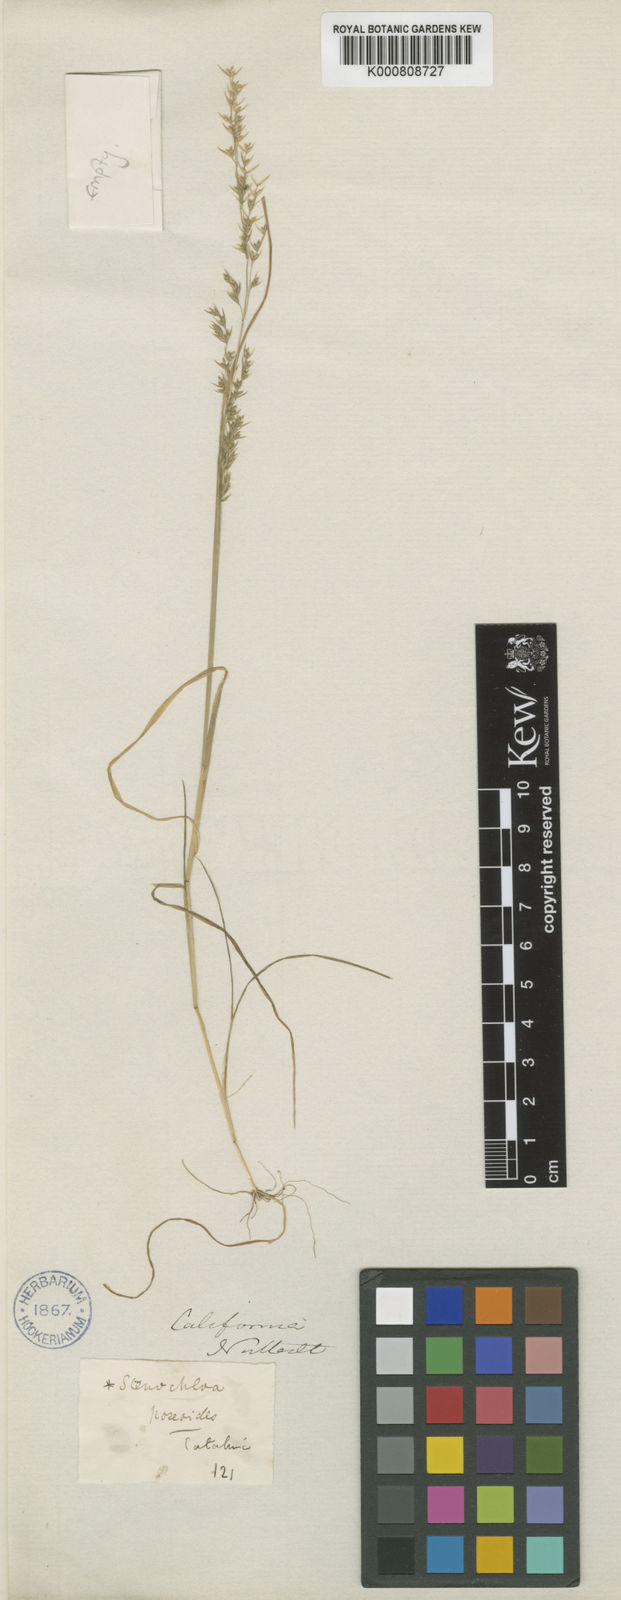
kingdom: Plantae
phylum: Tracheophyta
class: Liliopsida
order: Poales
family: Poaceae
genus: Poa
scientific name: Poa thomasii
